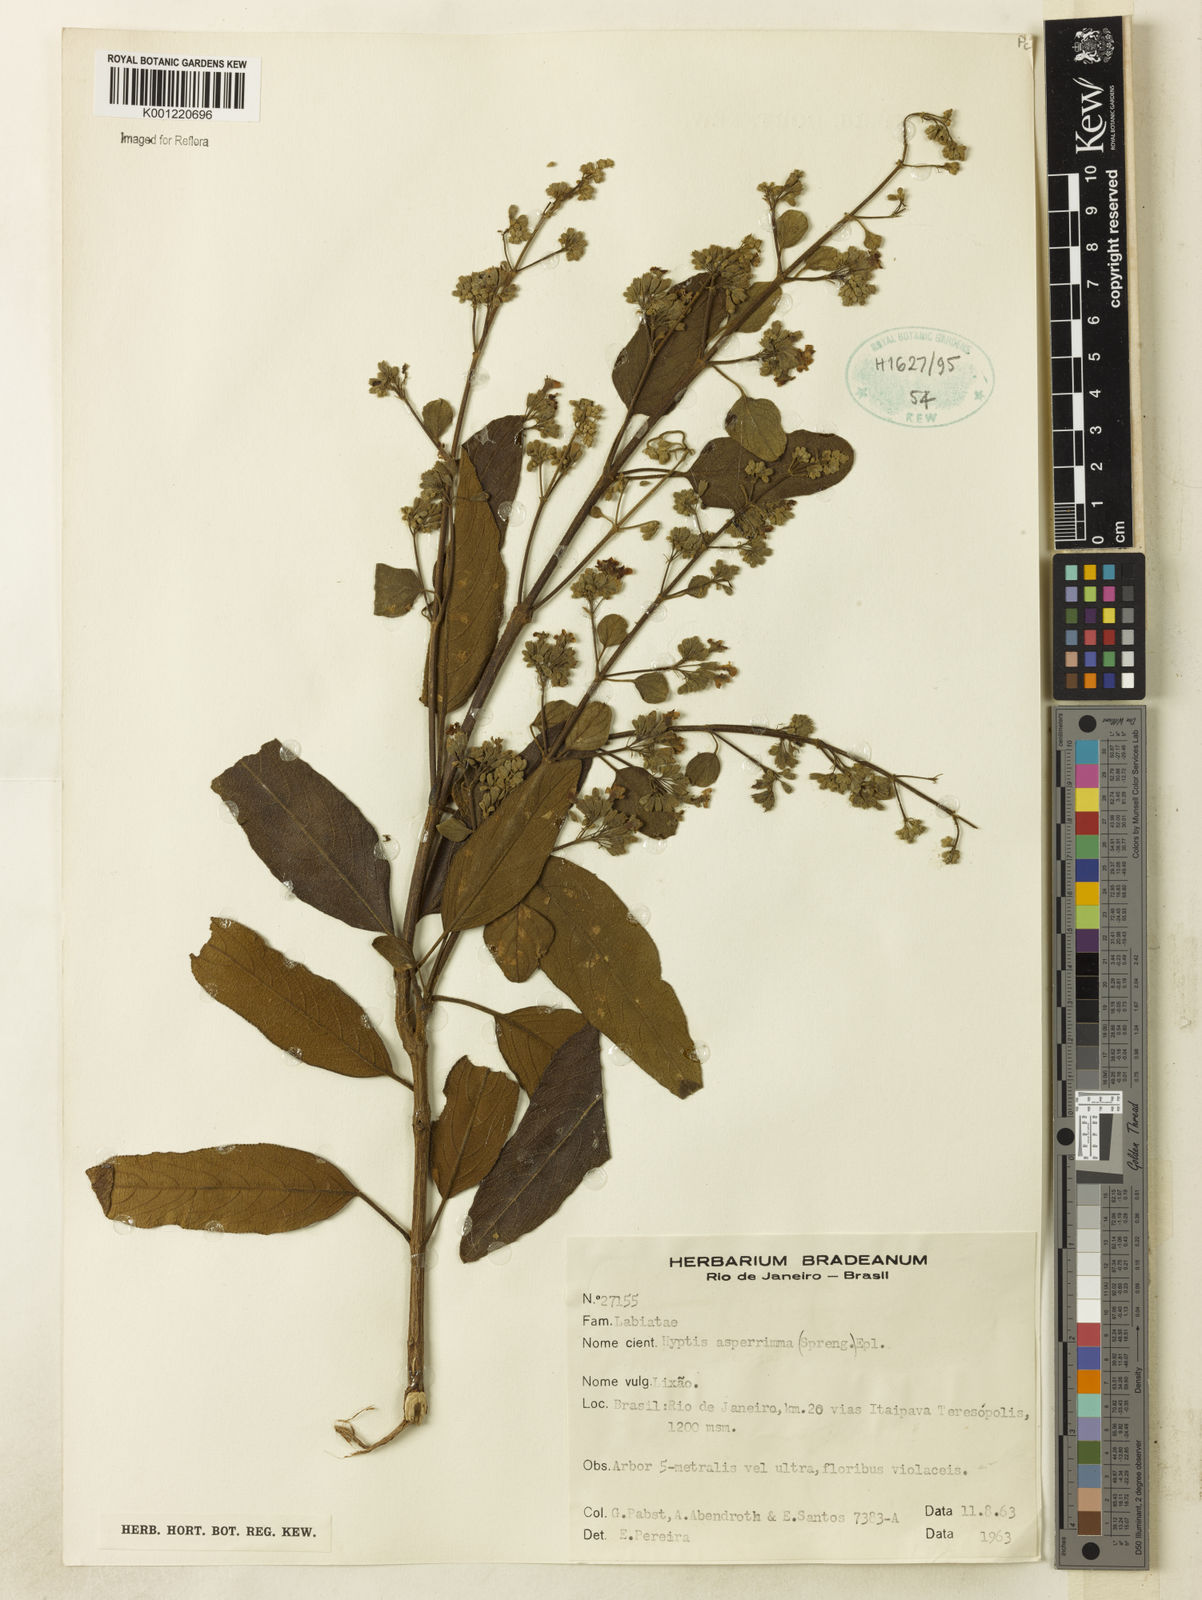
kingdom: Plantae
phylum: Tracheophyta
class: Magnoliopsida
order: Lamiales
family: Lamiaceae
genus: Hyptidendron
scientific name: Hyptidendron asperrimum
